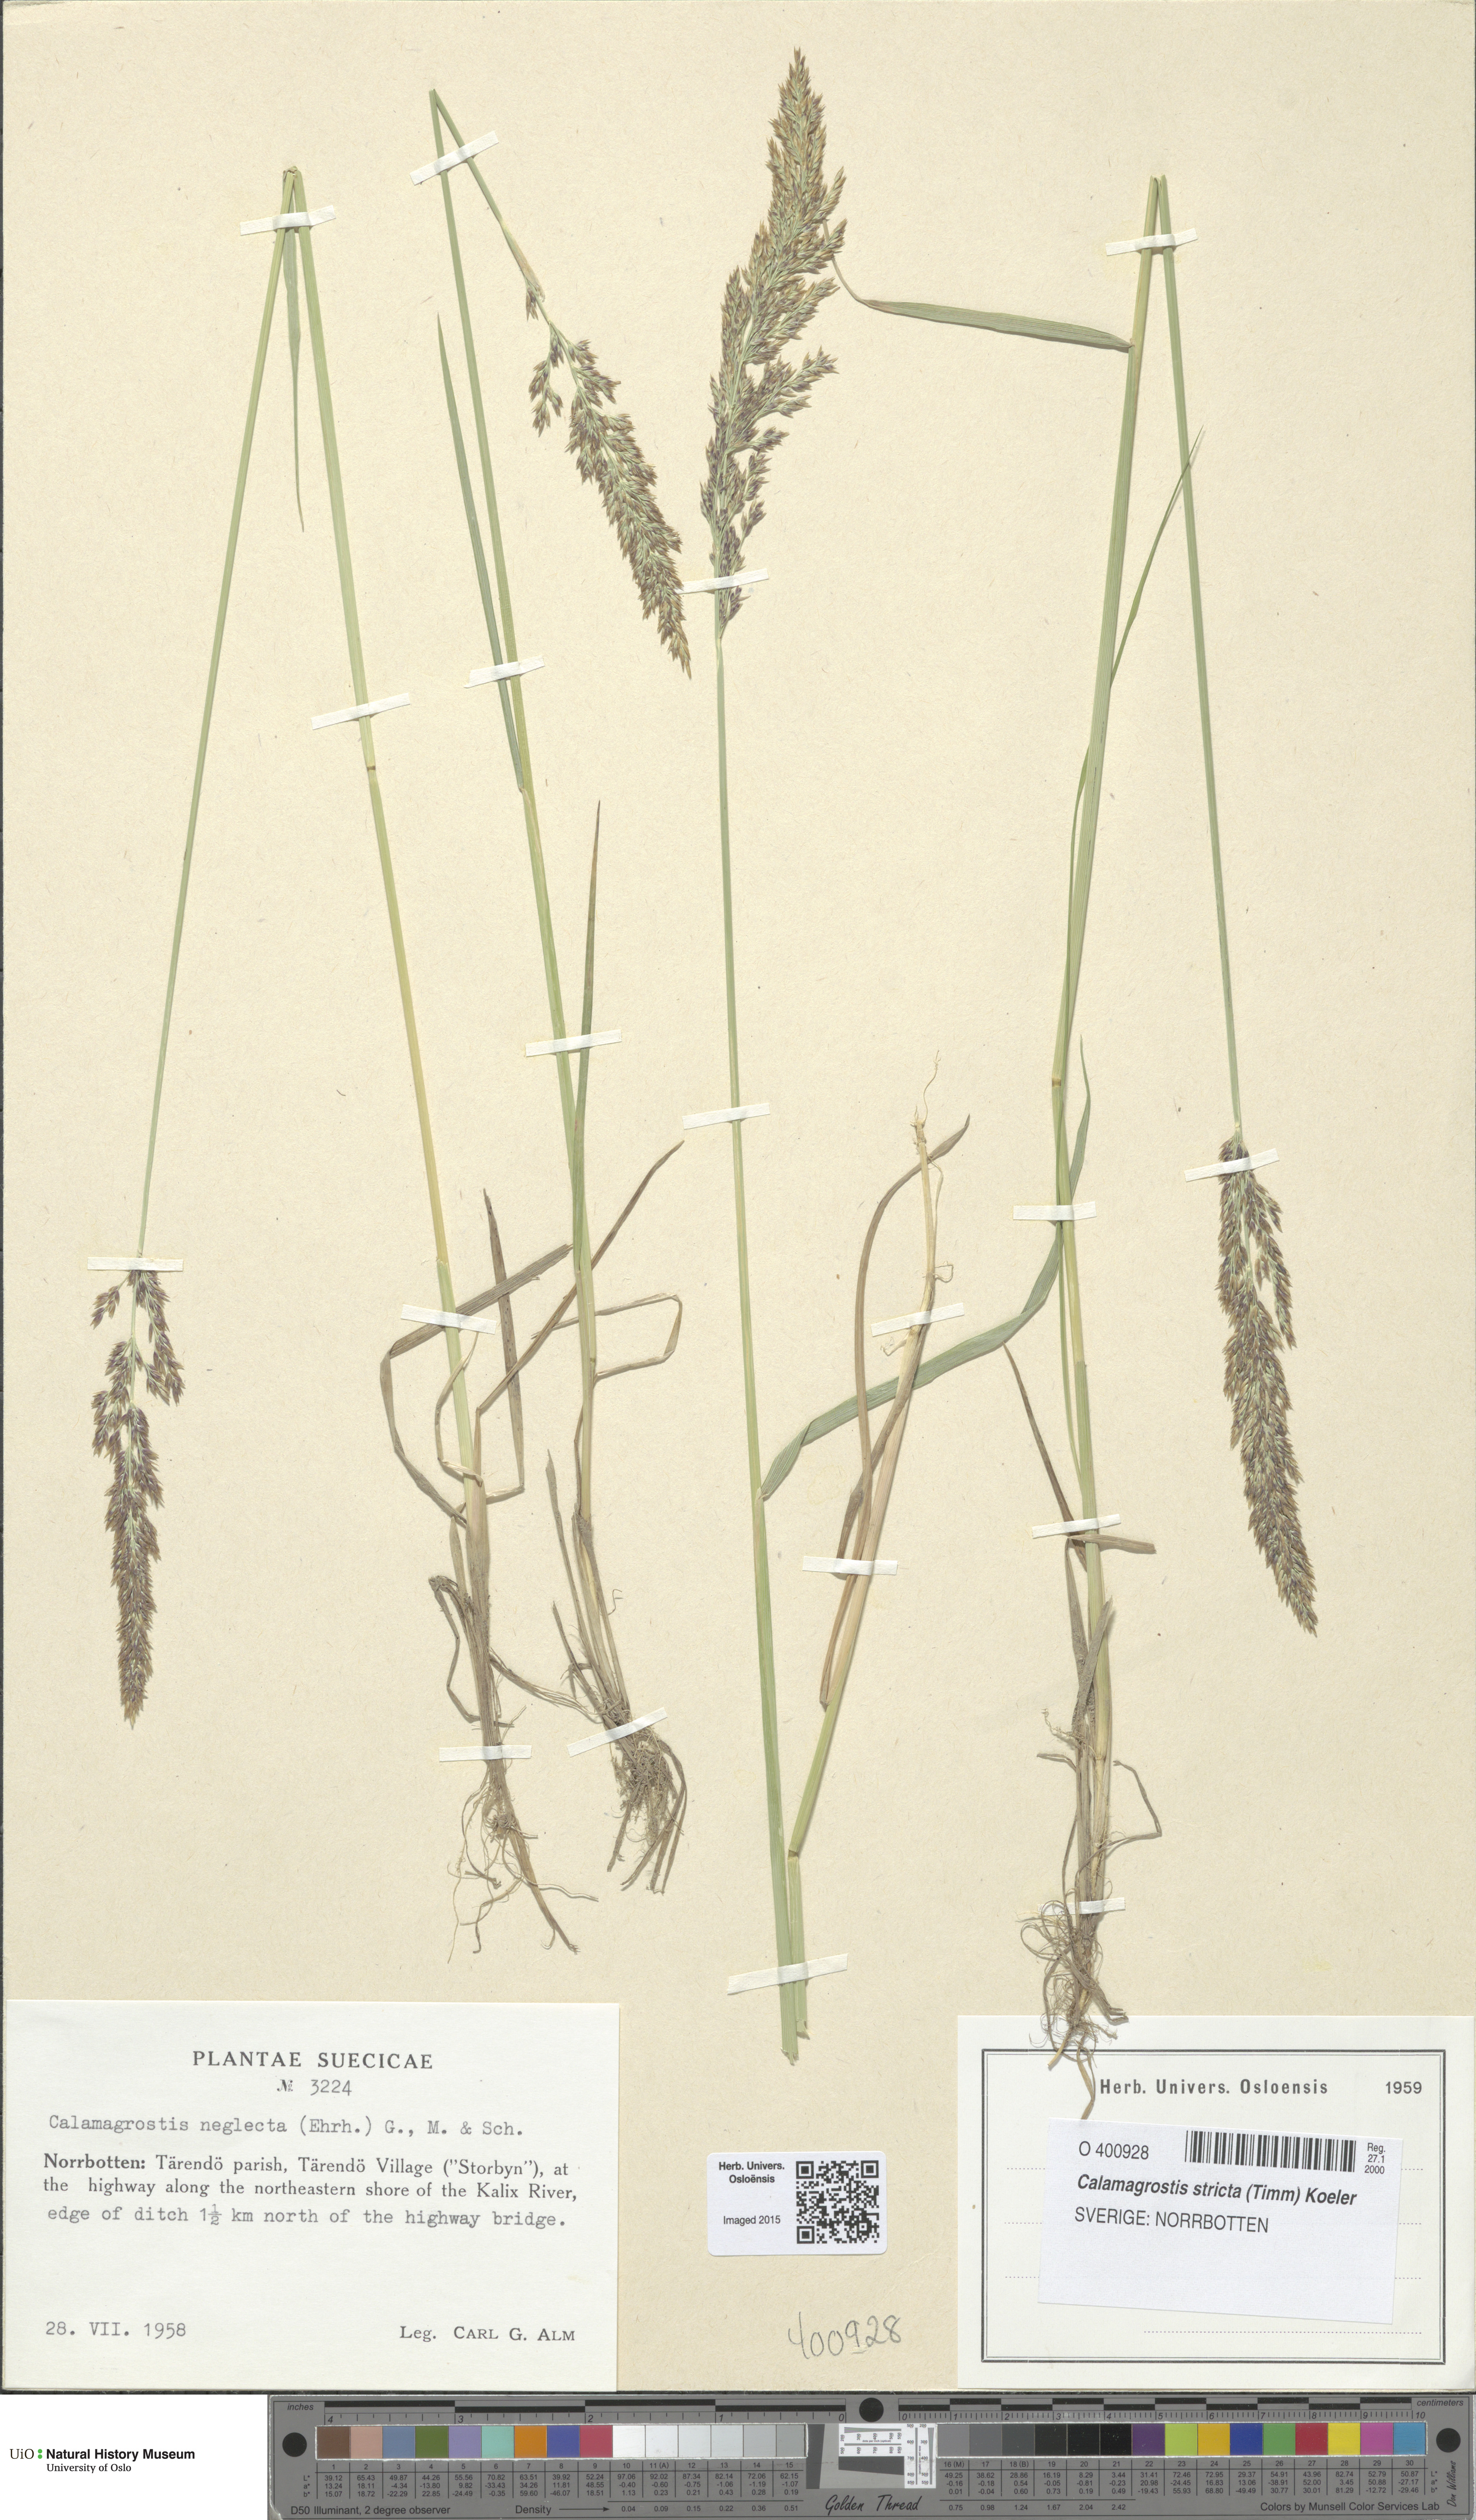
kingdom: Plantae
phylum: Tracheophyta
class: Liliopsida
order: Poales
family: Poaceae
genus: Achnatherum
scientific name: Achnatherum calamagrostis
